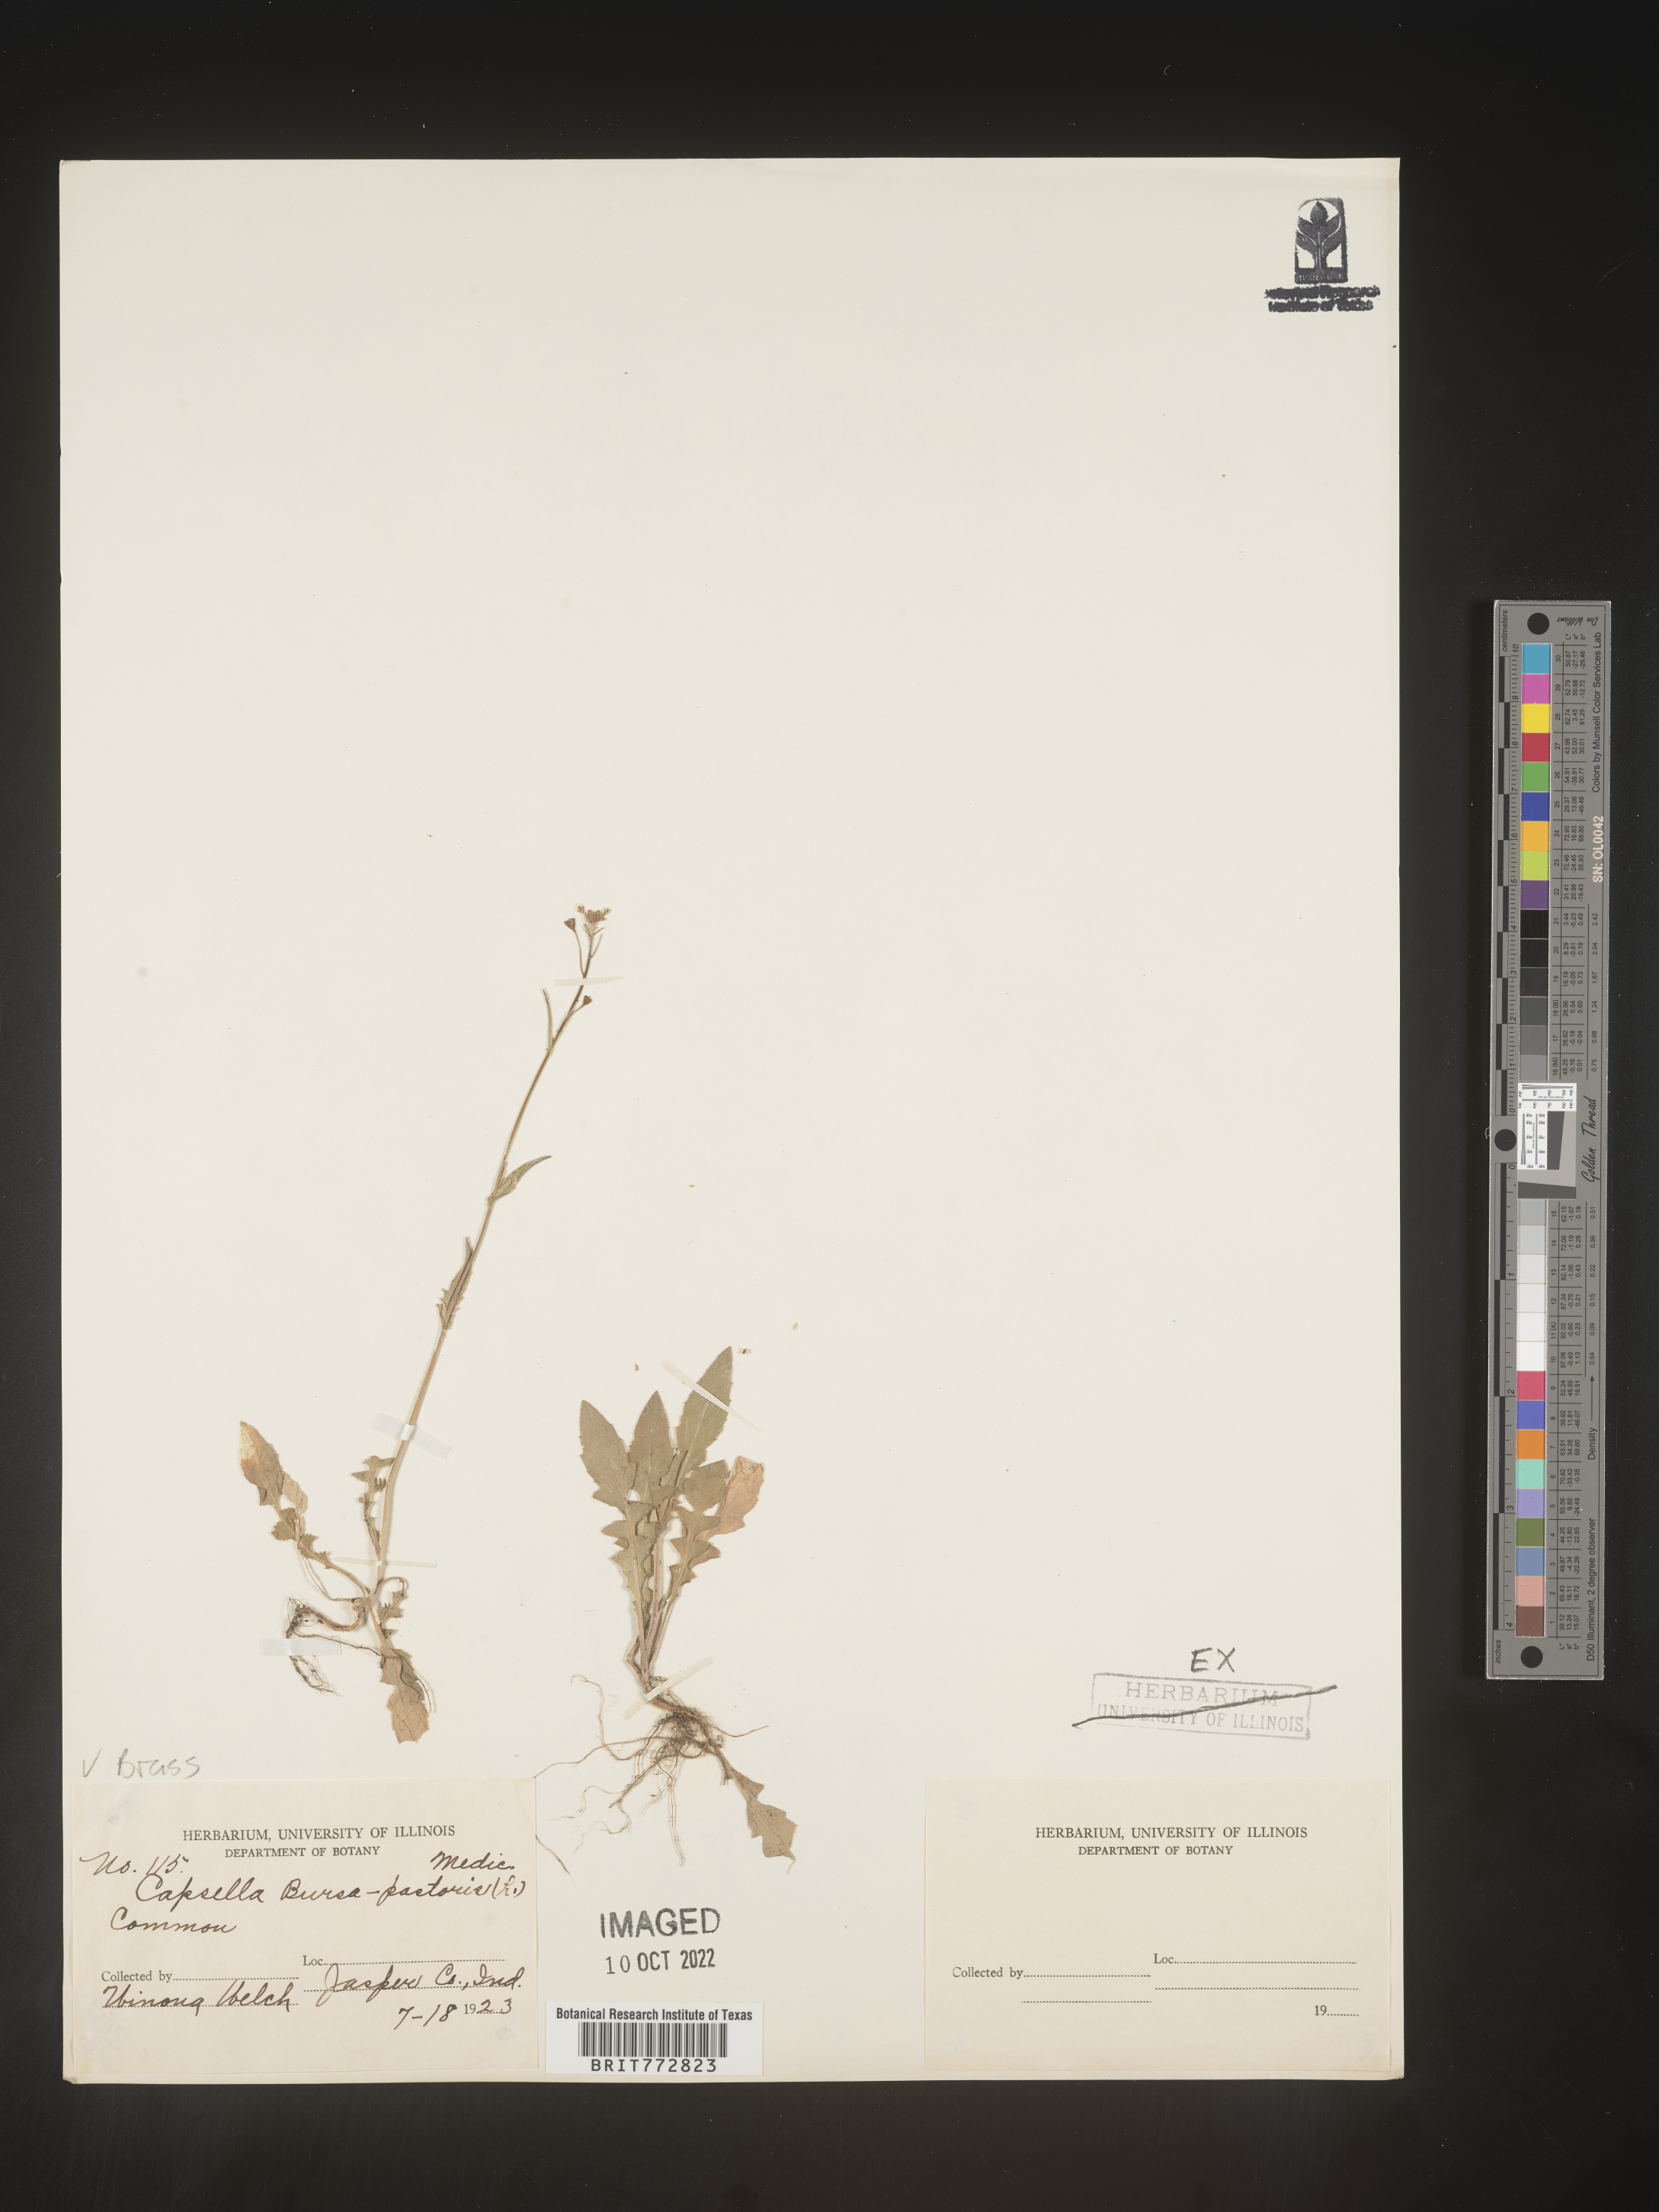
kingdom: Plantae
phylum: Tracheophyta
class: Magnoliopsida
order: Brassicales
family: Brassicaceae
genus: Capsella
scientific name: Capsella bursa-pastoris
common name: Shepherd's purse
